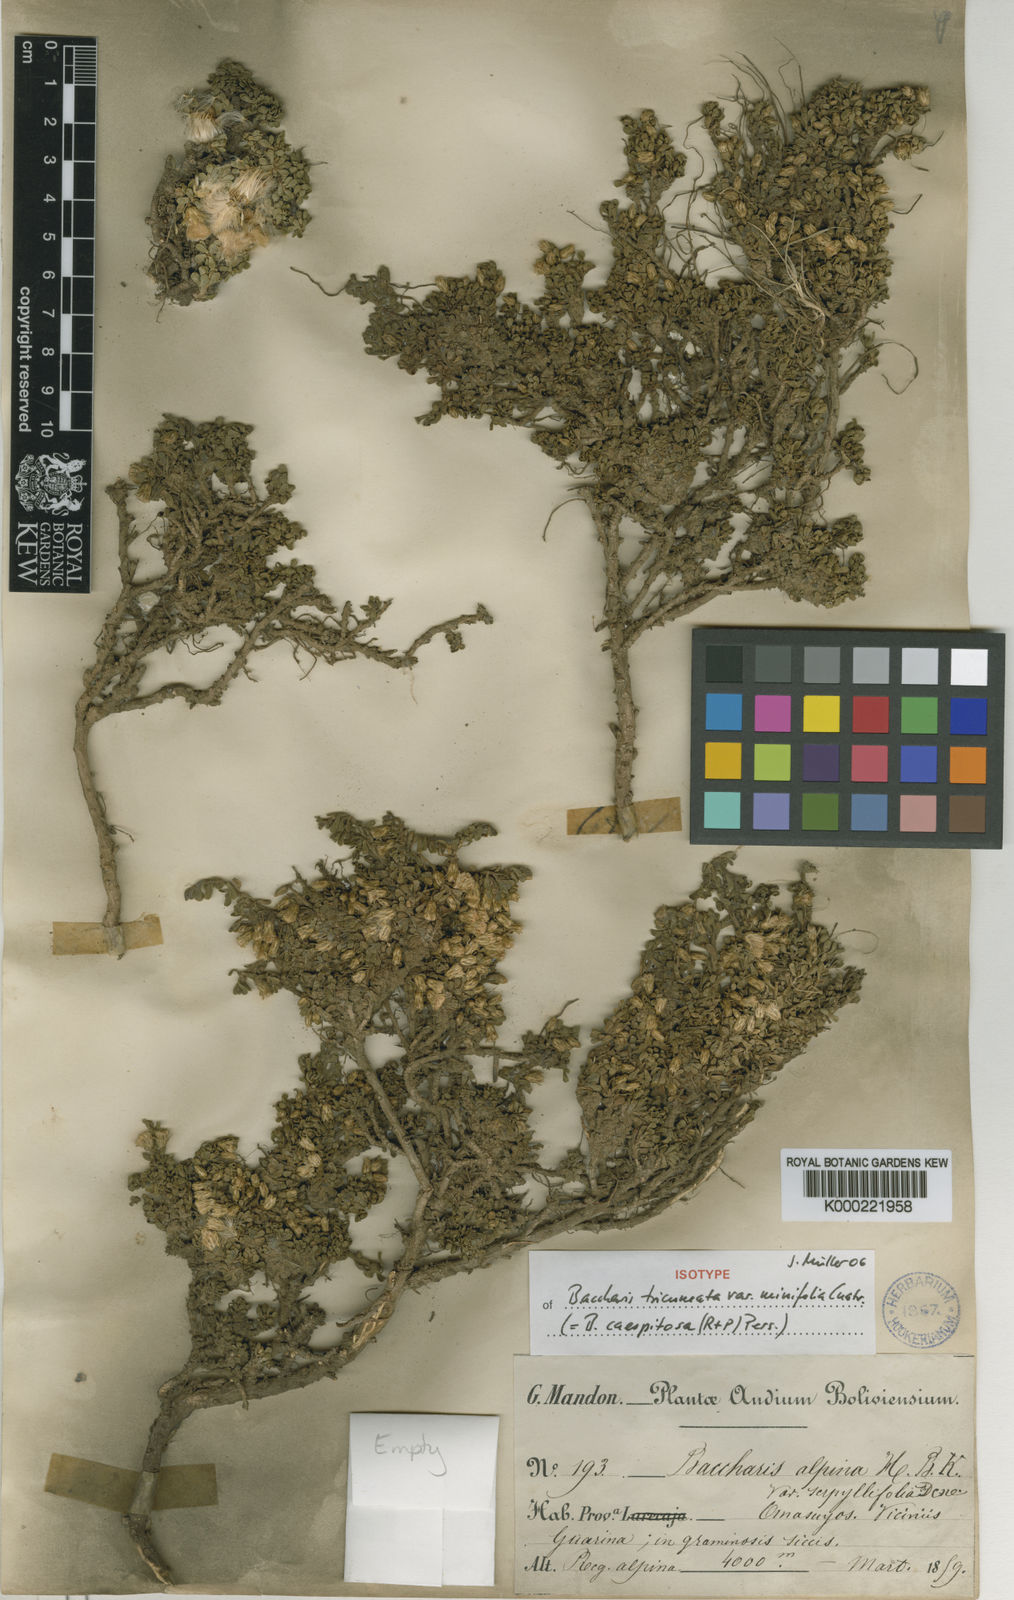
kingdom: Plantae
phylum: Tracheophyta
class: Magnoliopsida
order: Asterales
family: Asteraceae
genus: Baccharis
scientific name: Baccharis caespitosa
